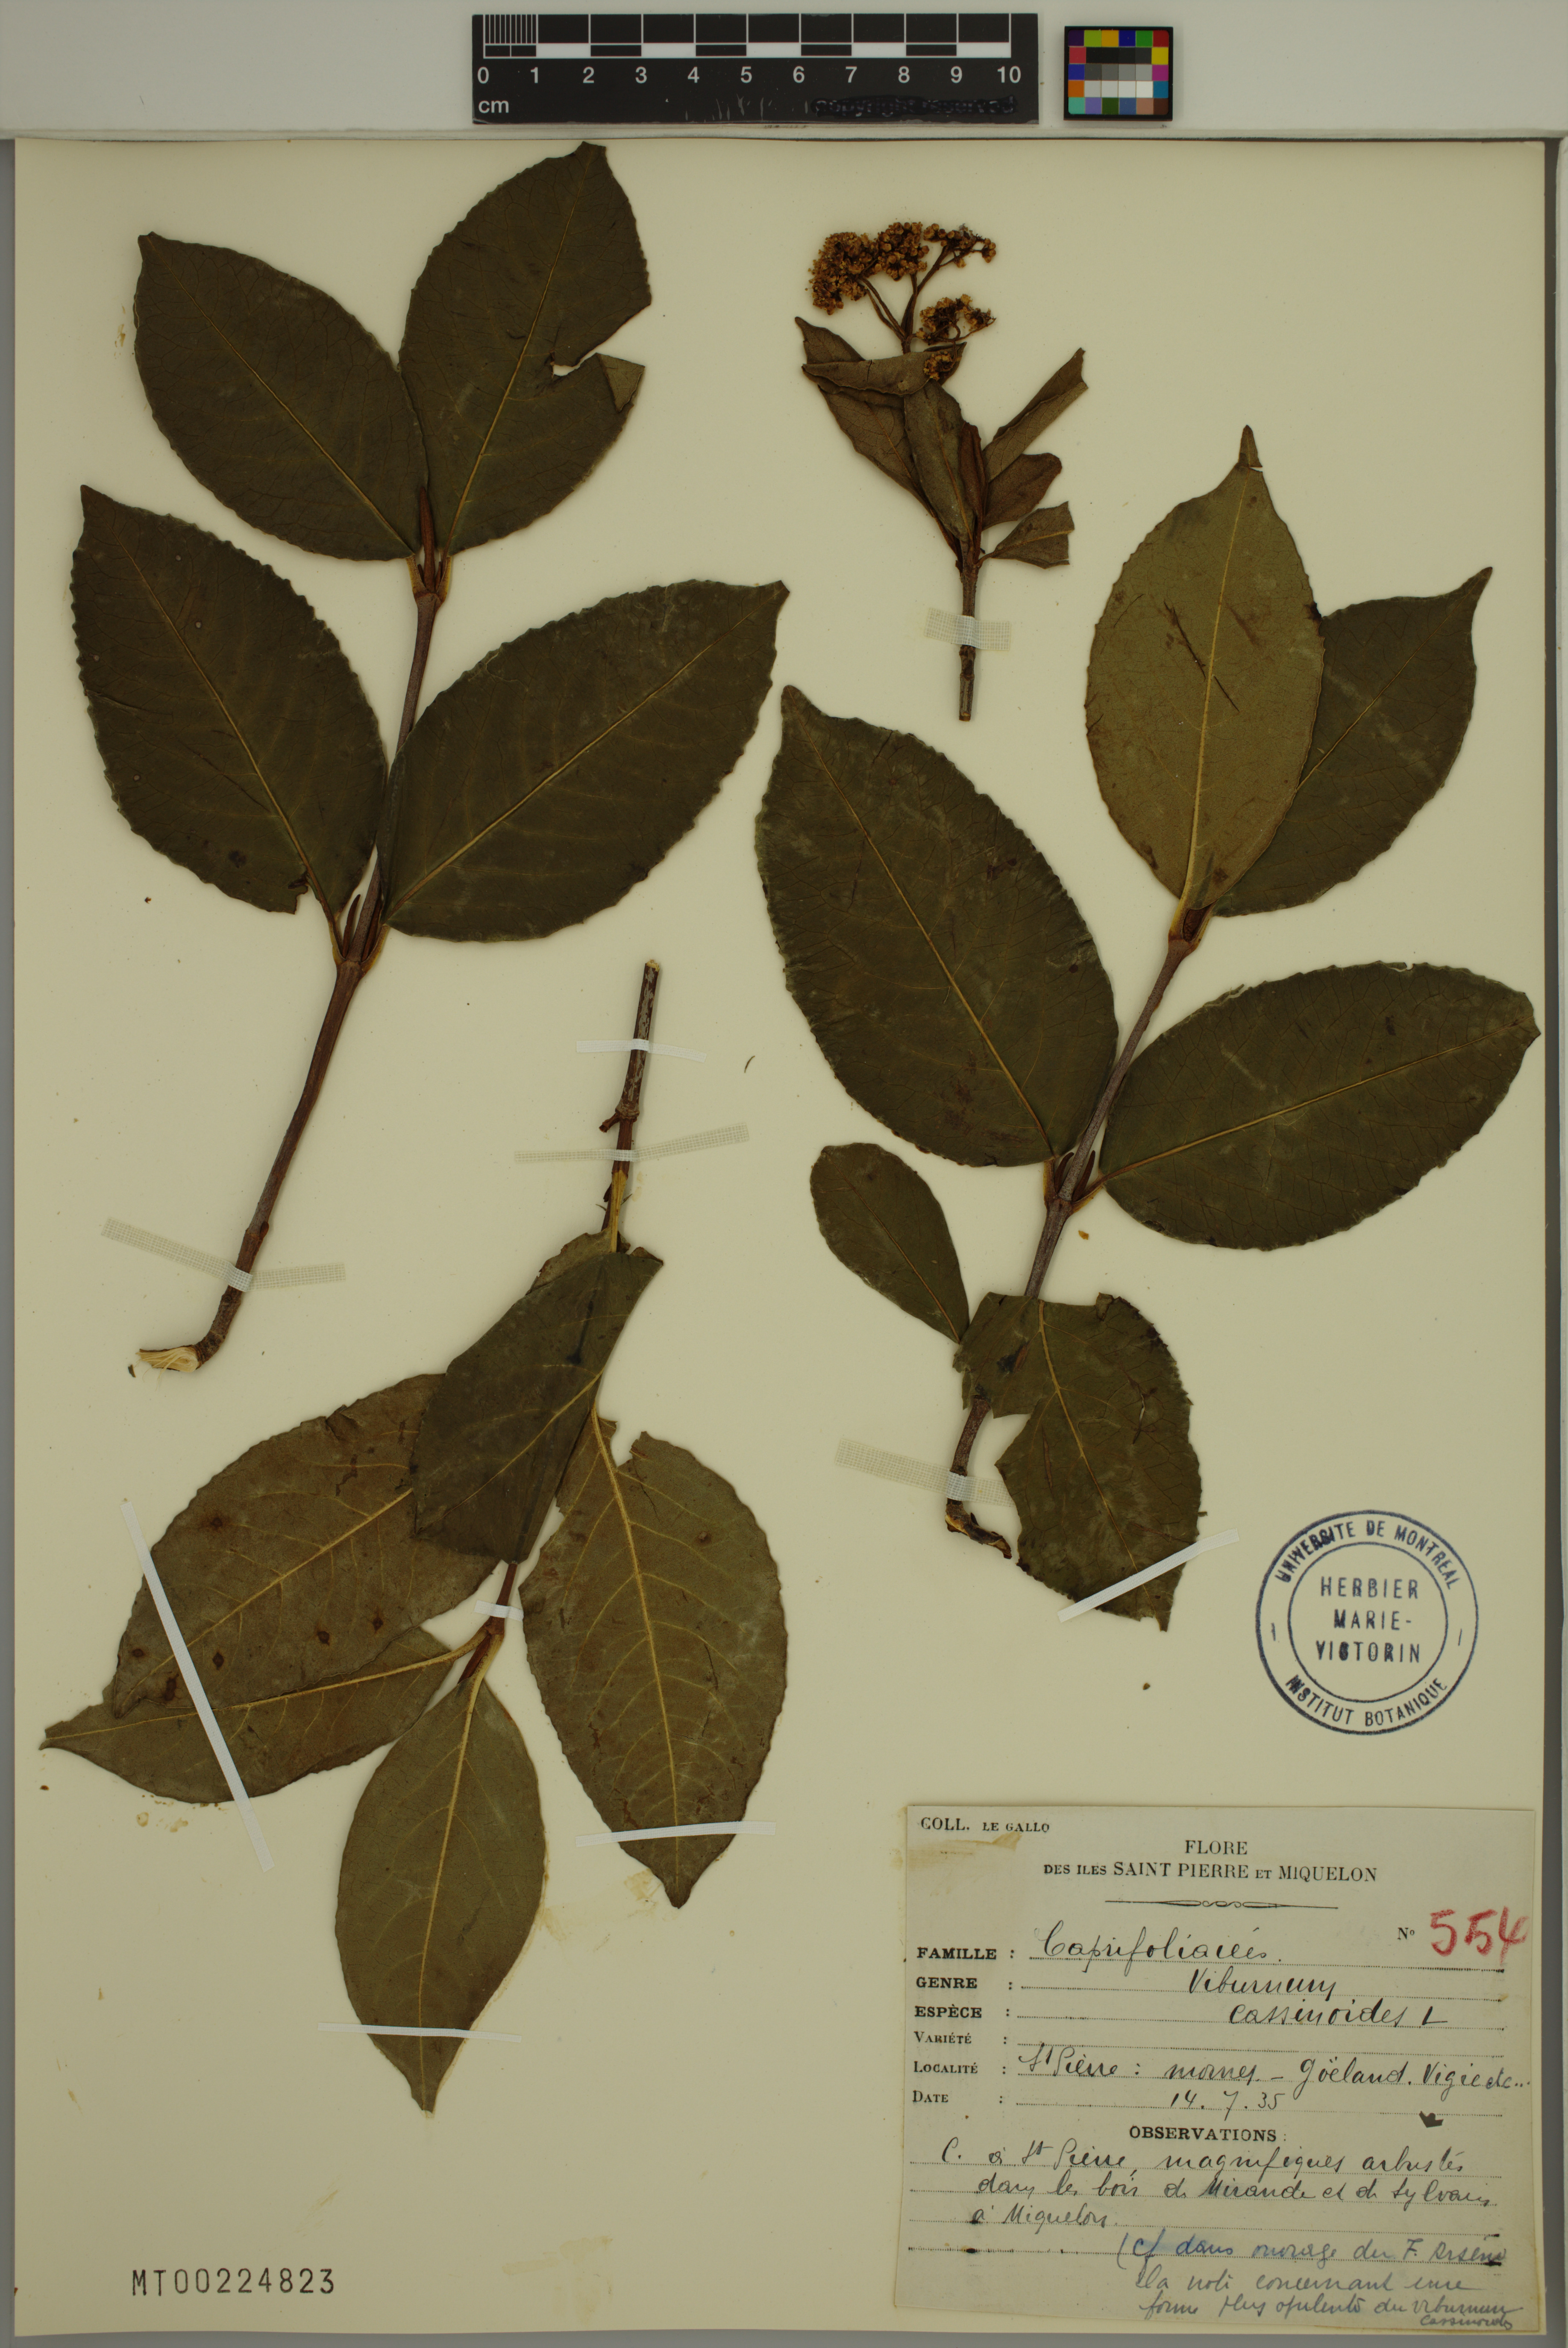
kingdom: Plantae
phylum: Tracheophyta
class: Magnoliopsida
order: Dipsacales
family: Viburnaceae
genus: Viburnum
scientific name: Viburnum cassinoides
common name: Swamp haw
